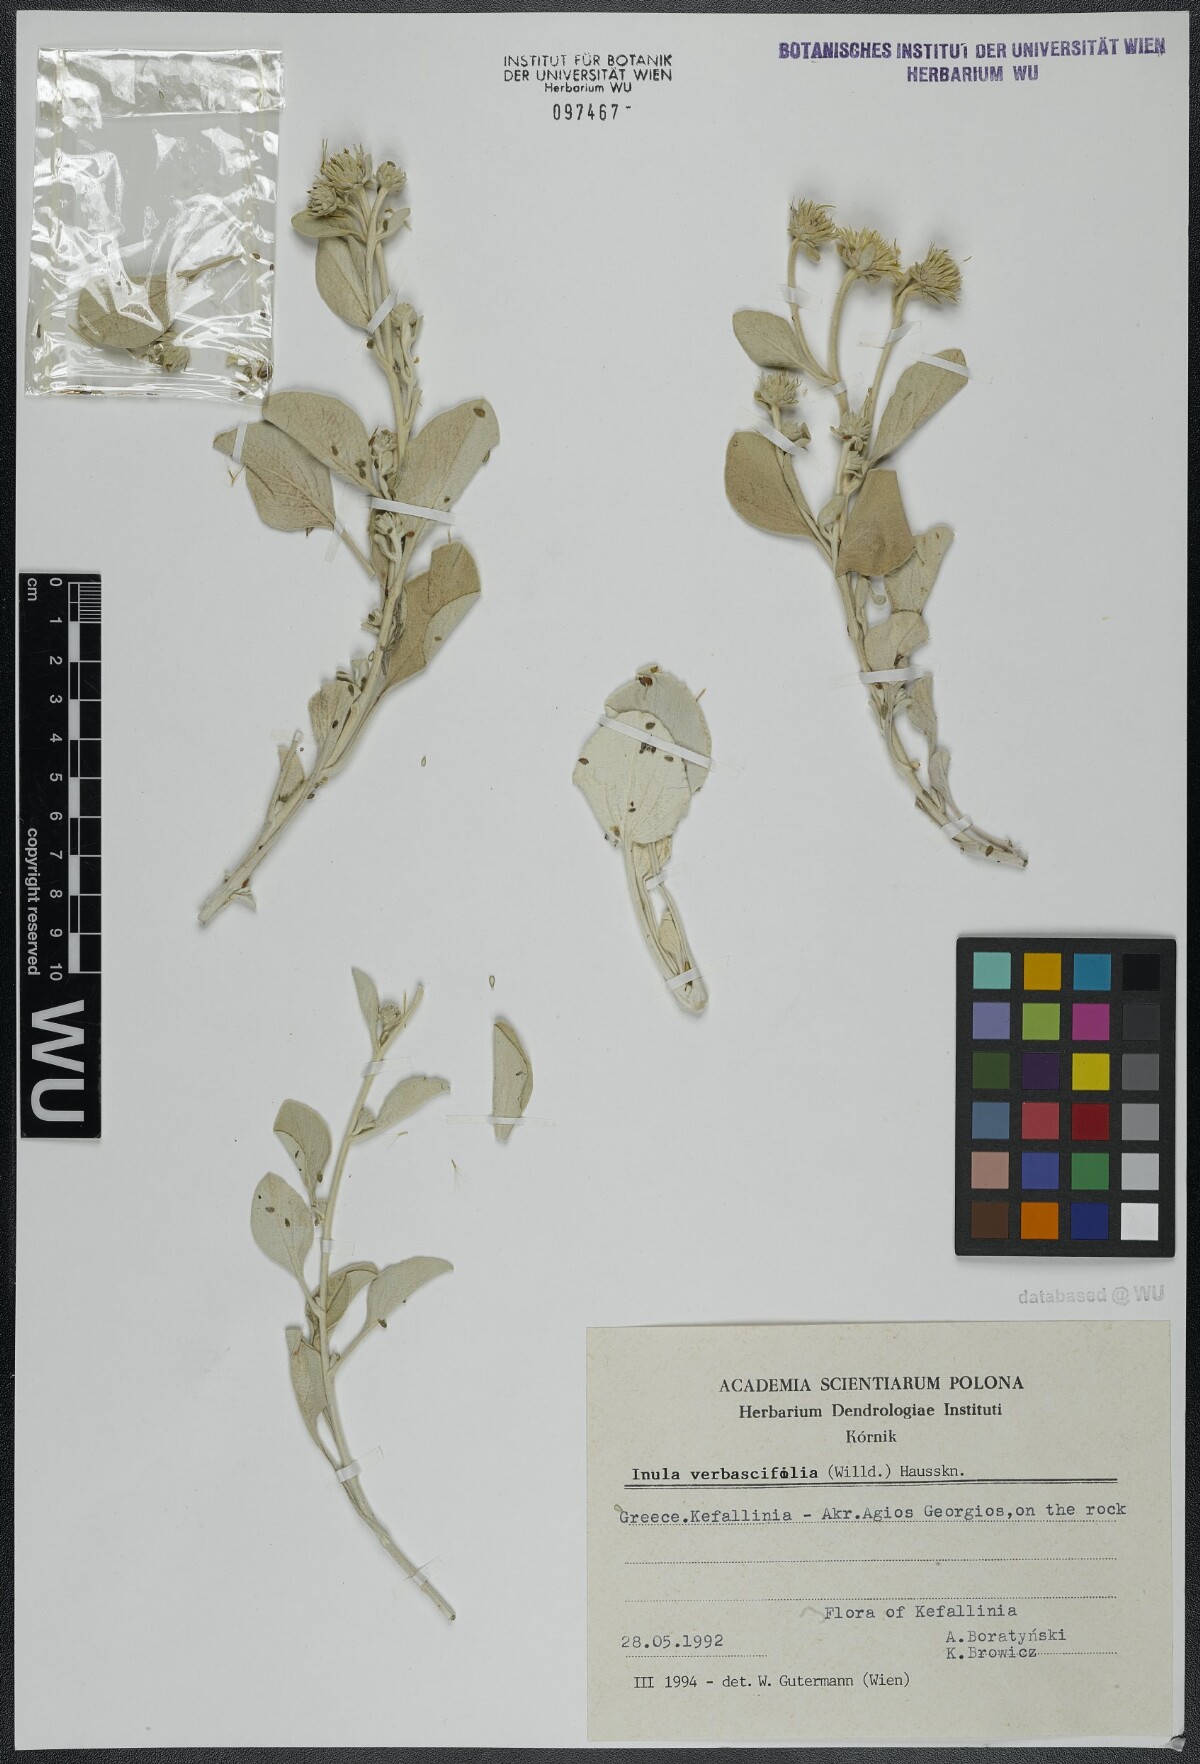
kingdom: Plantae
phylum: Tracheophyta
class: Magnoliopsida
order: Asterales
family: Asteraceae
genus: Pentanema
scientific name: Pentanema verbascifolium
